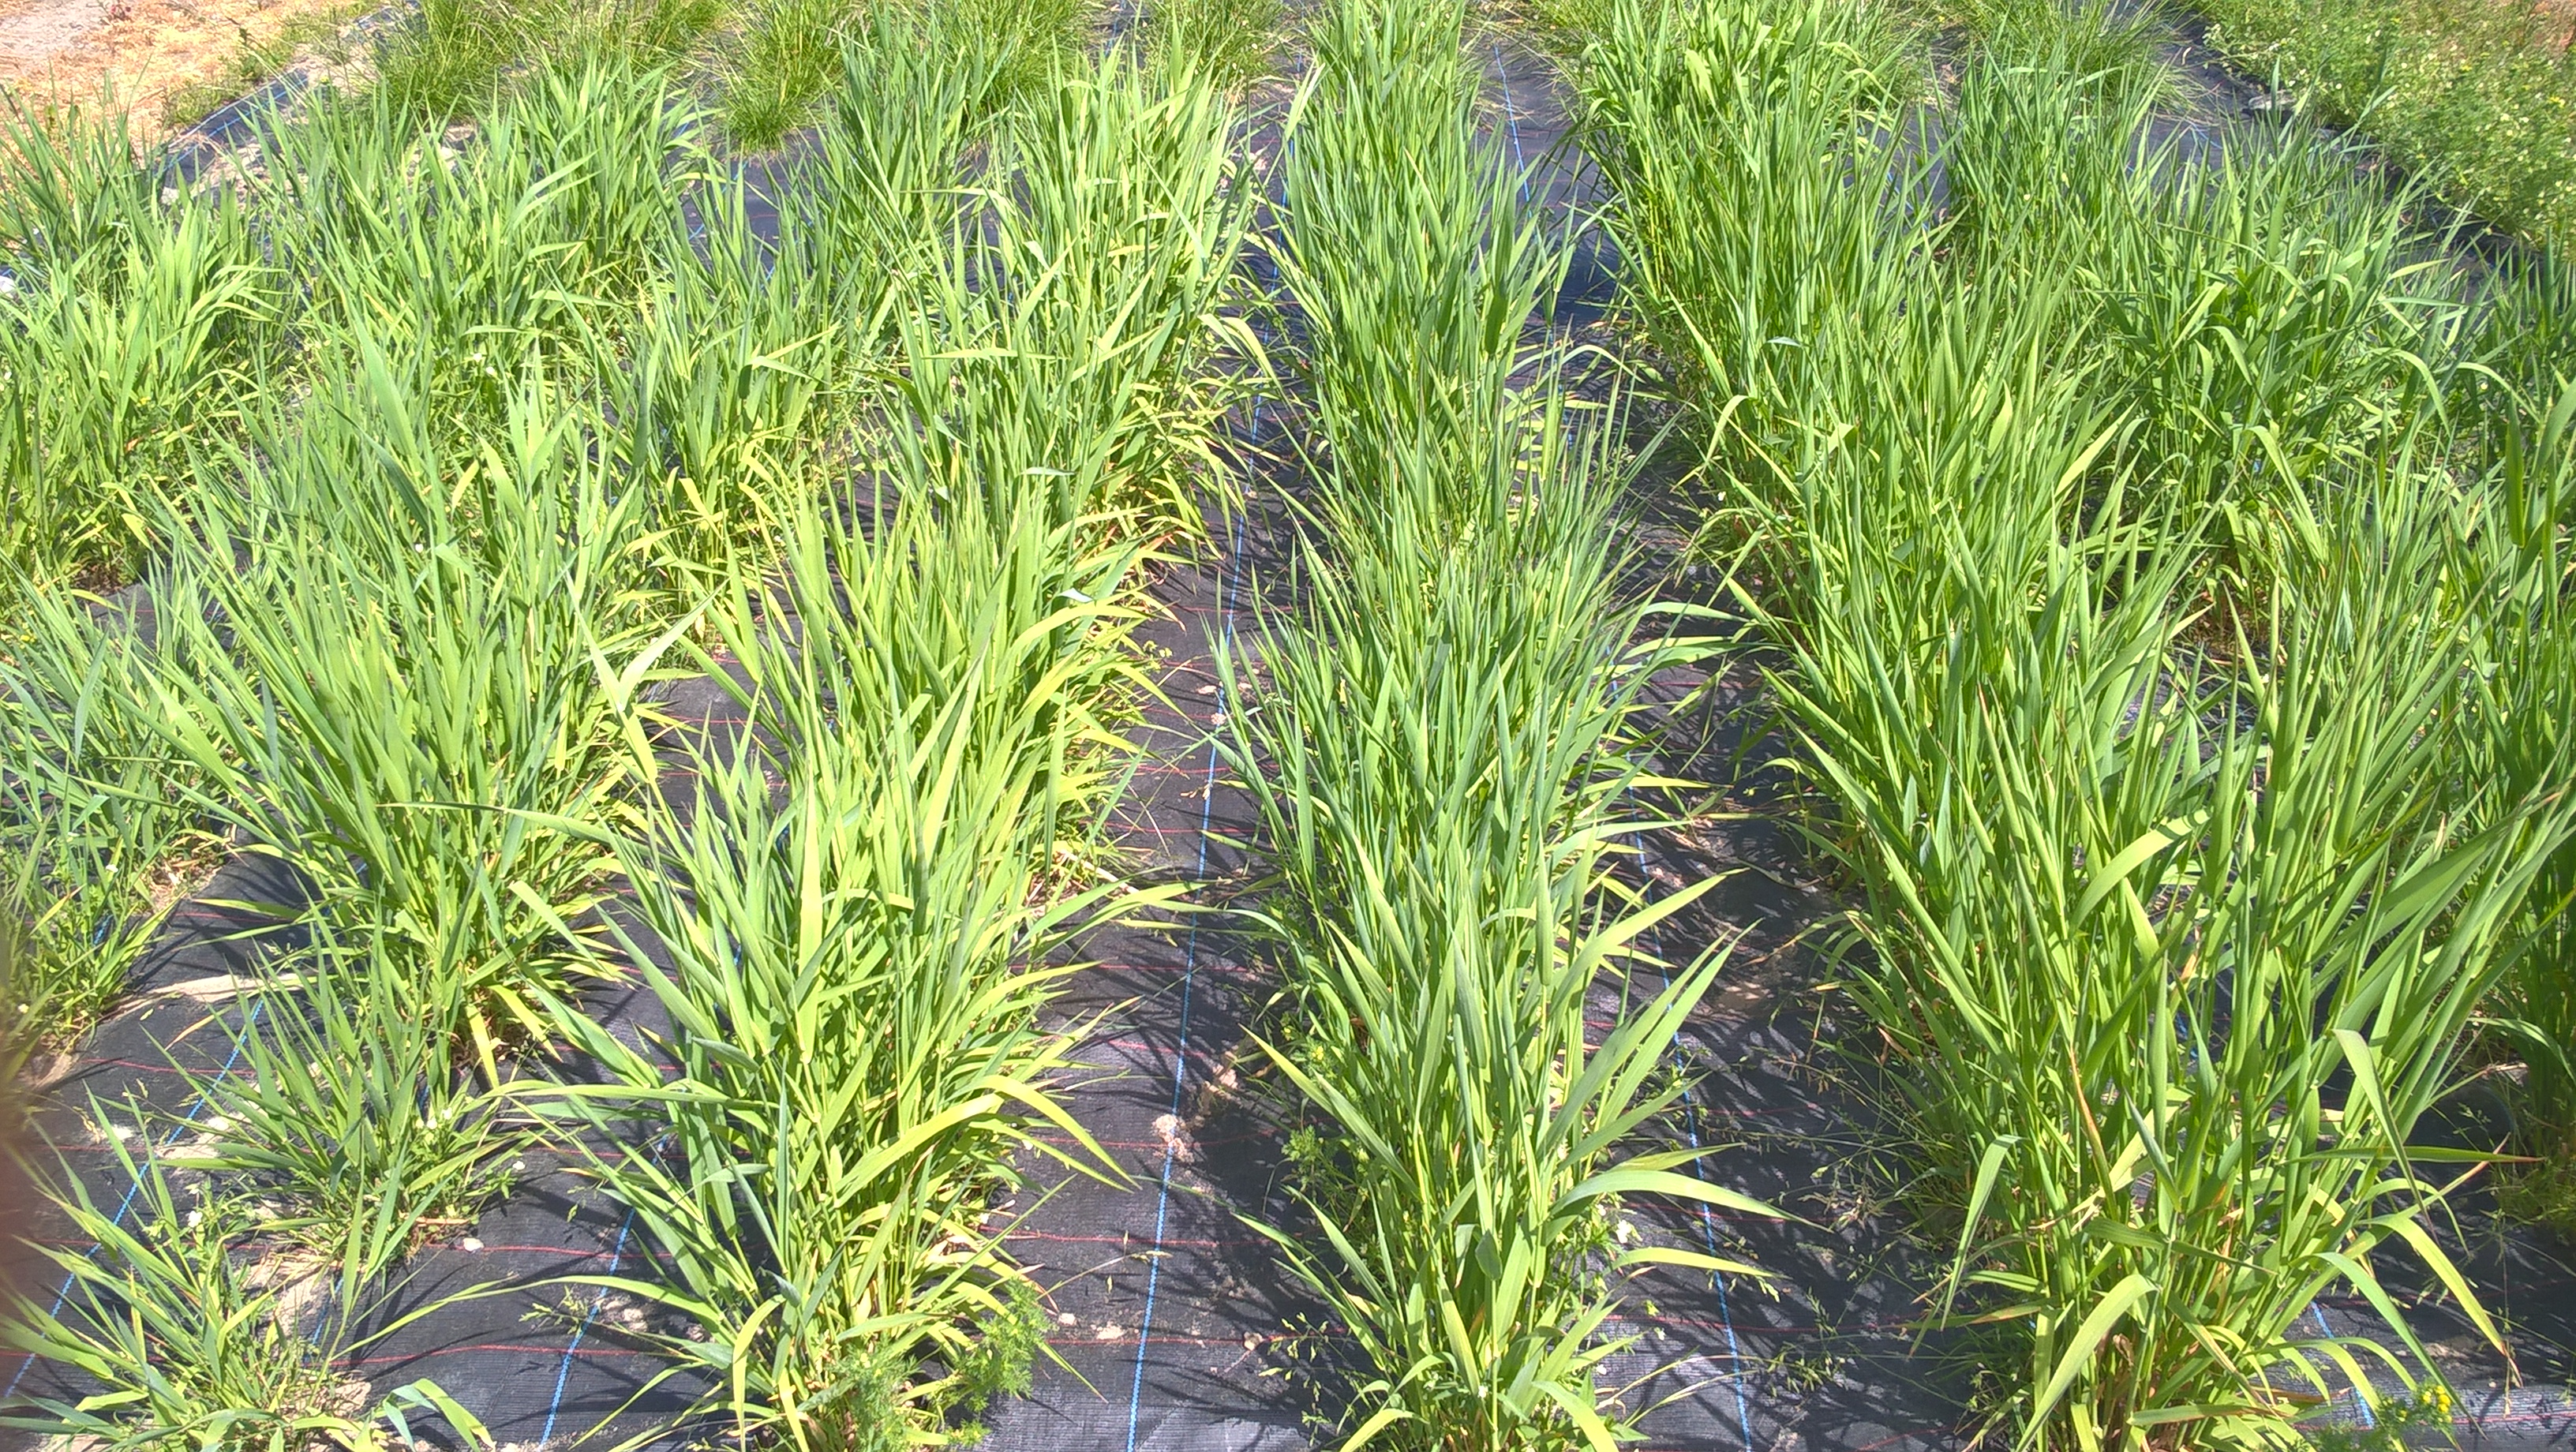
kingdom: Plantae
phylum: Tracheophyta
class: Liliopsida
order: Poales
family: Poaceae
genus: Phalaris
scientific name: Phalaris arundinacea
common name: Reed canary-grass
